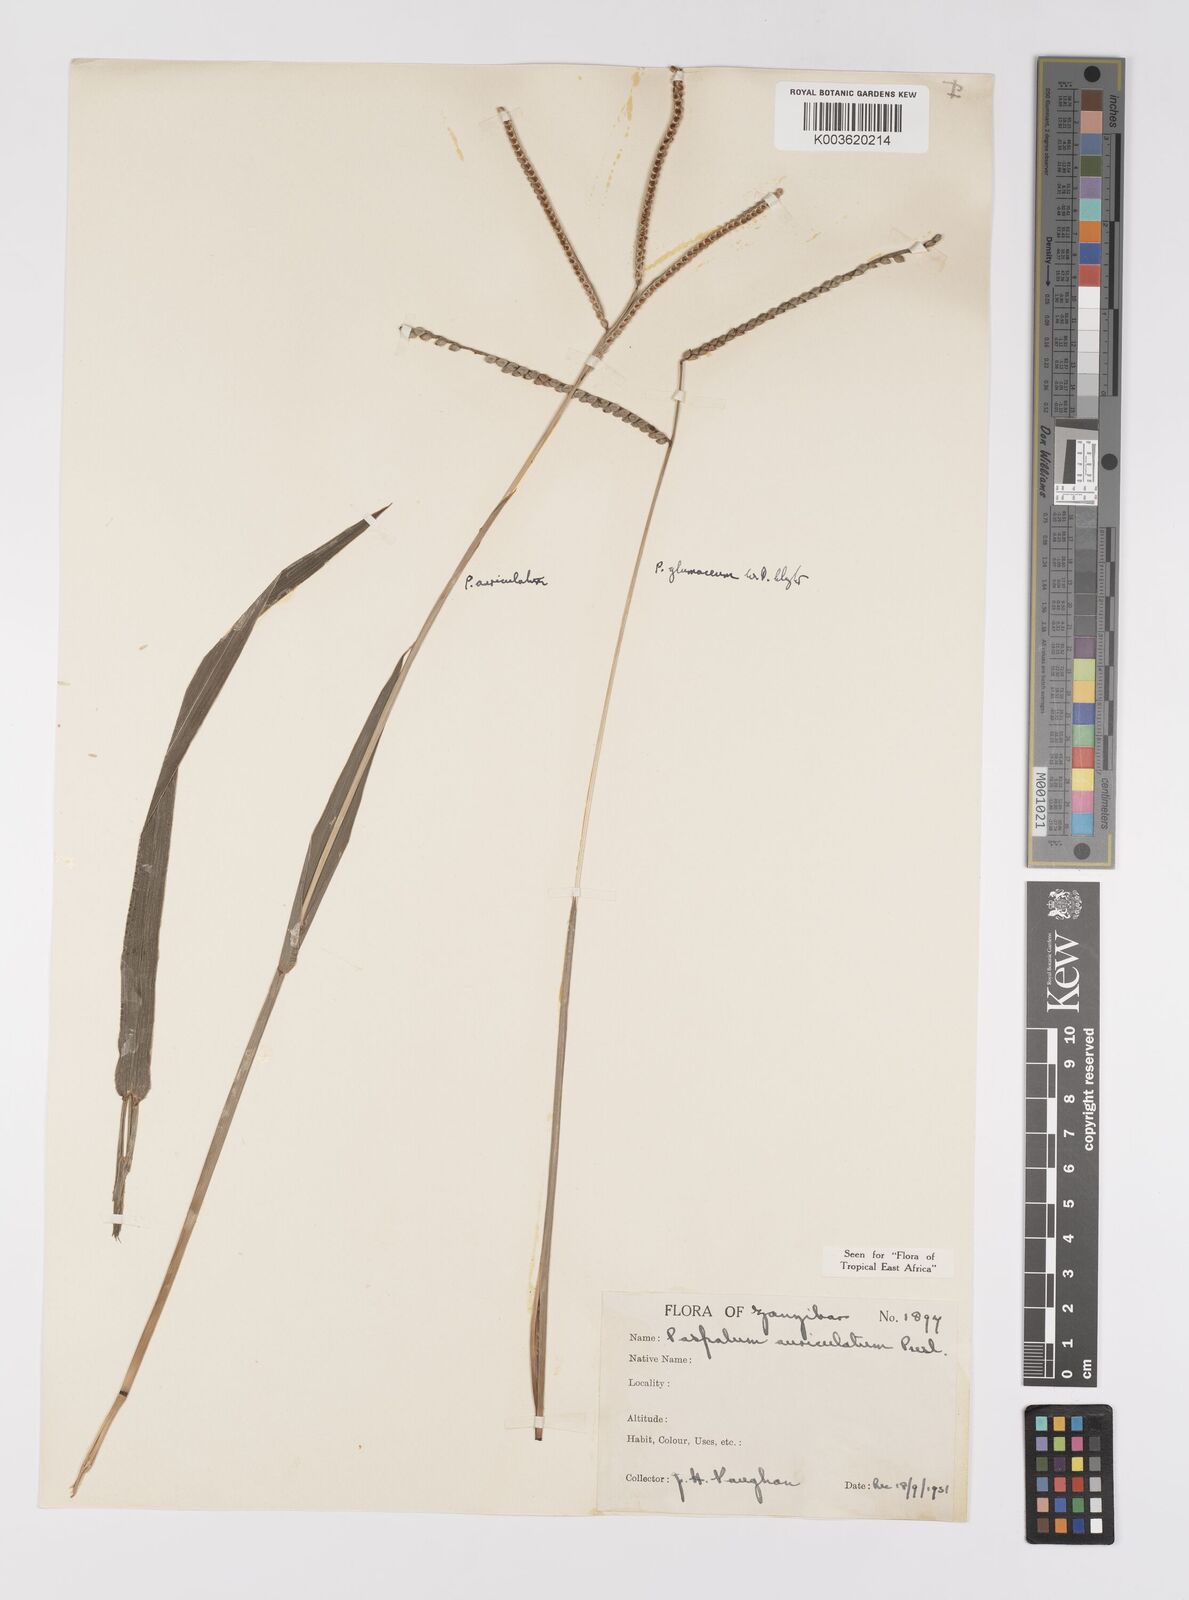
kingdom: Plantae
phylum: Tracheophyta
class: Liliopsida
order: Poales
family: Poaceae
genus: Paspalum
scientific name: Paspalum glumaceum
